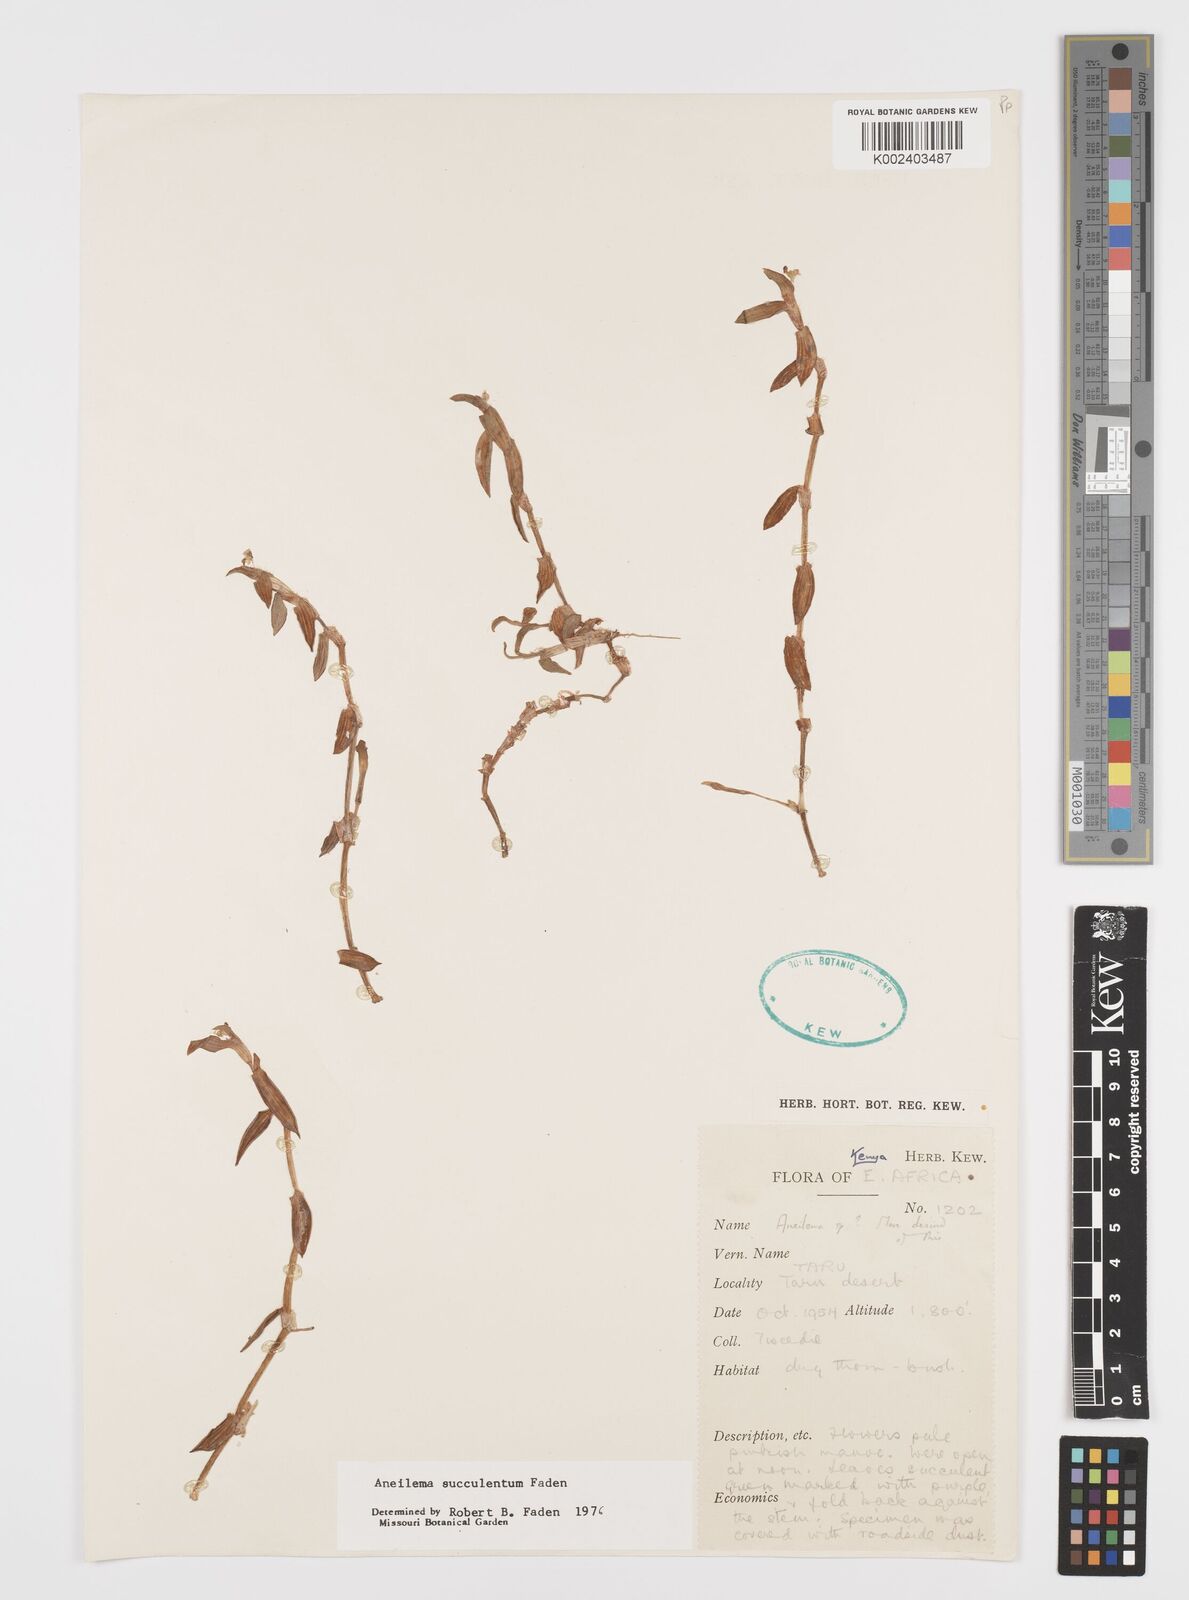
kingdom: Plantae
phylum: Tracheophyta
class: Liliopsida
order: Commelinales
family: Commelinaceae
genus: Aneilema
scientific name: Aneilema succulentum
